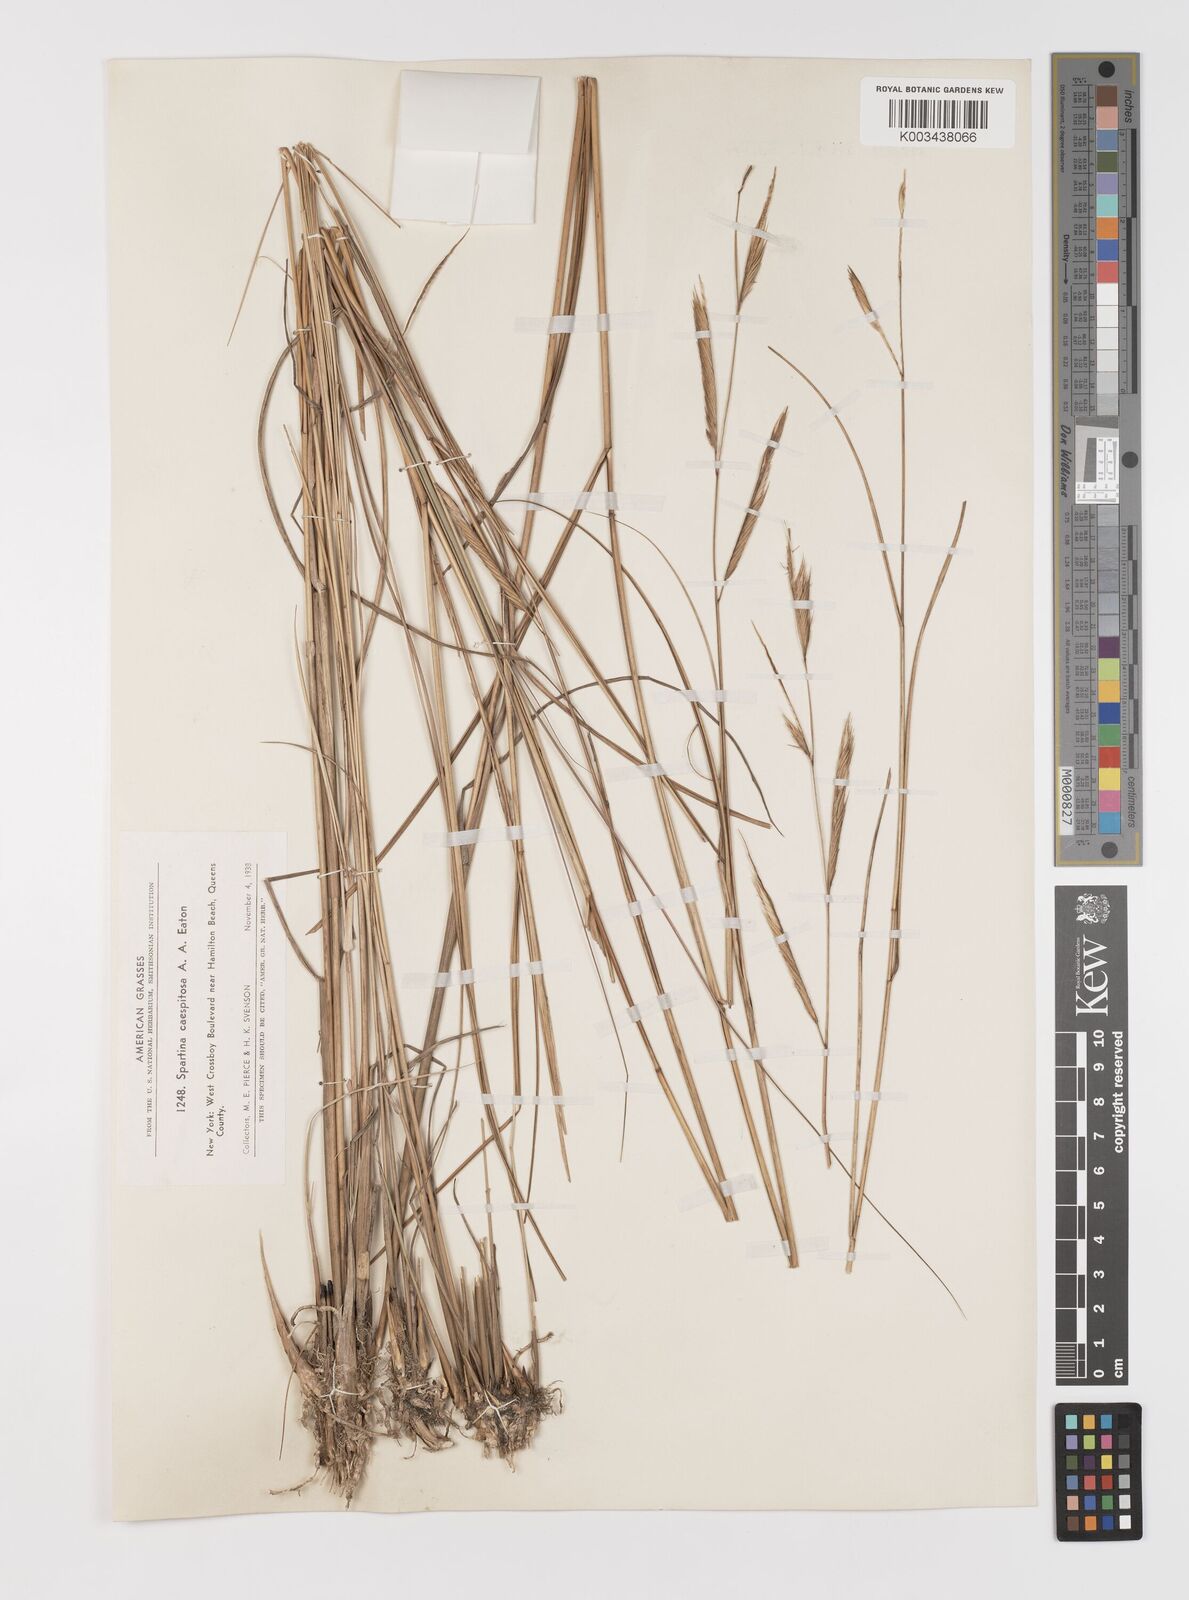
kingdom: Plantae
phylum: Tracheophyta
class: Liliopsida
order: Poales
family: Poaceae
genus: Sporobolus
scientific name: Sporobolus eatonianus
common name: Mixed cordgrass
